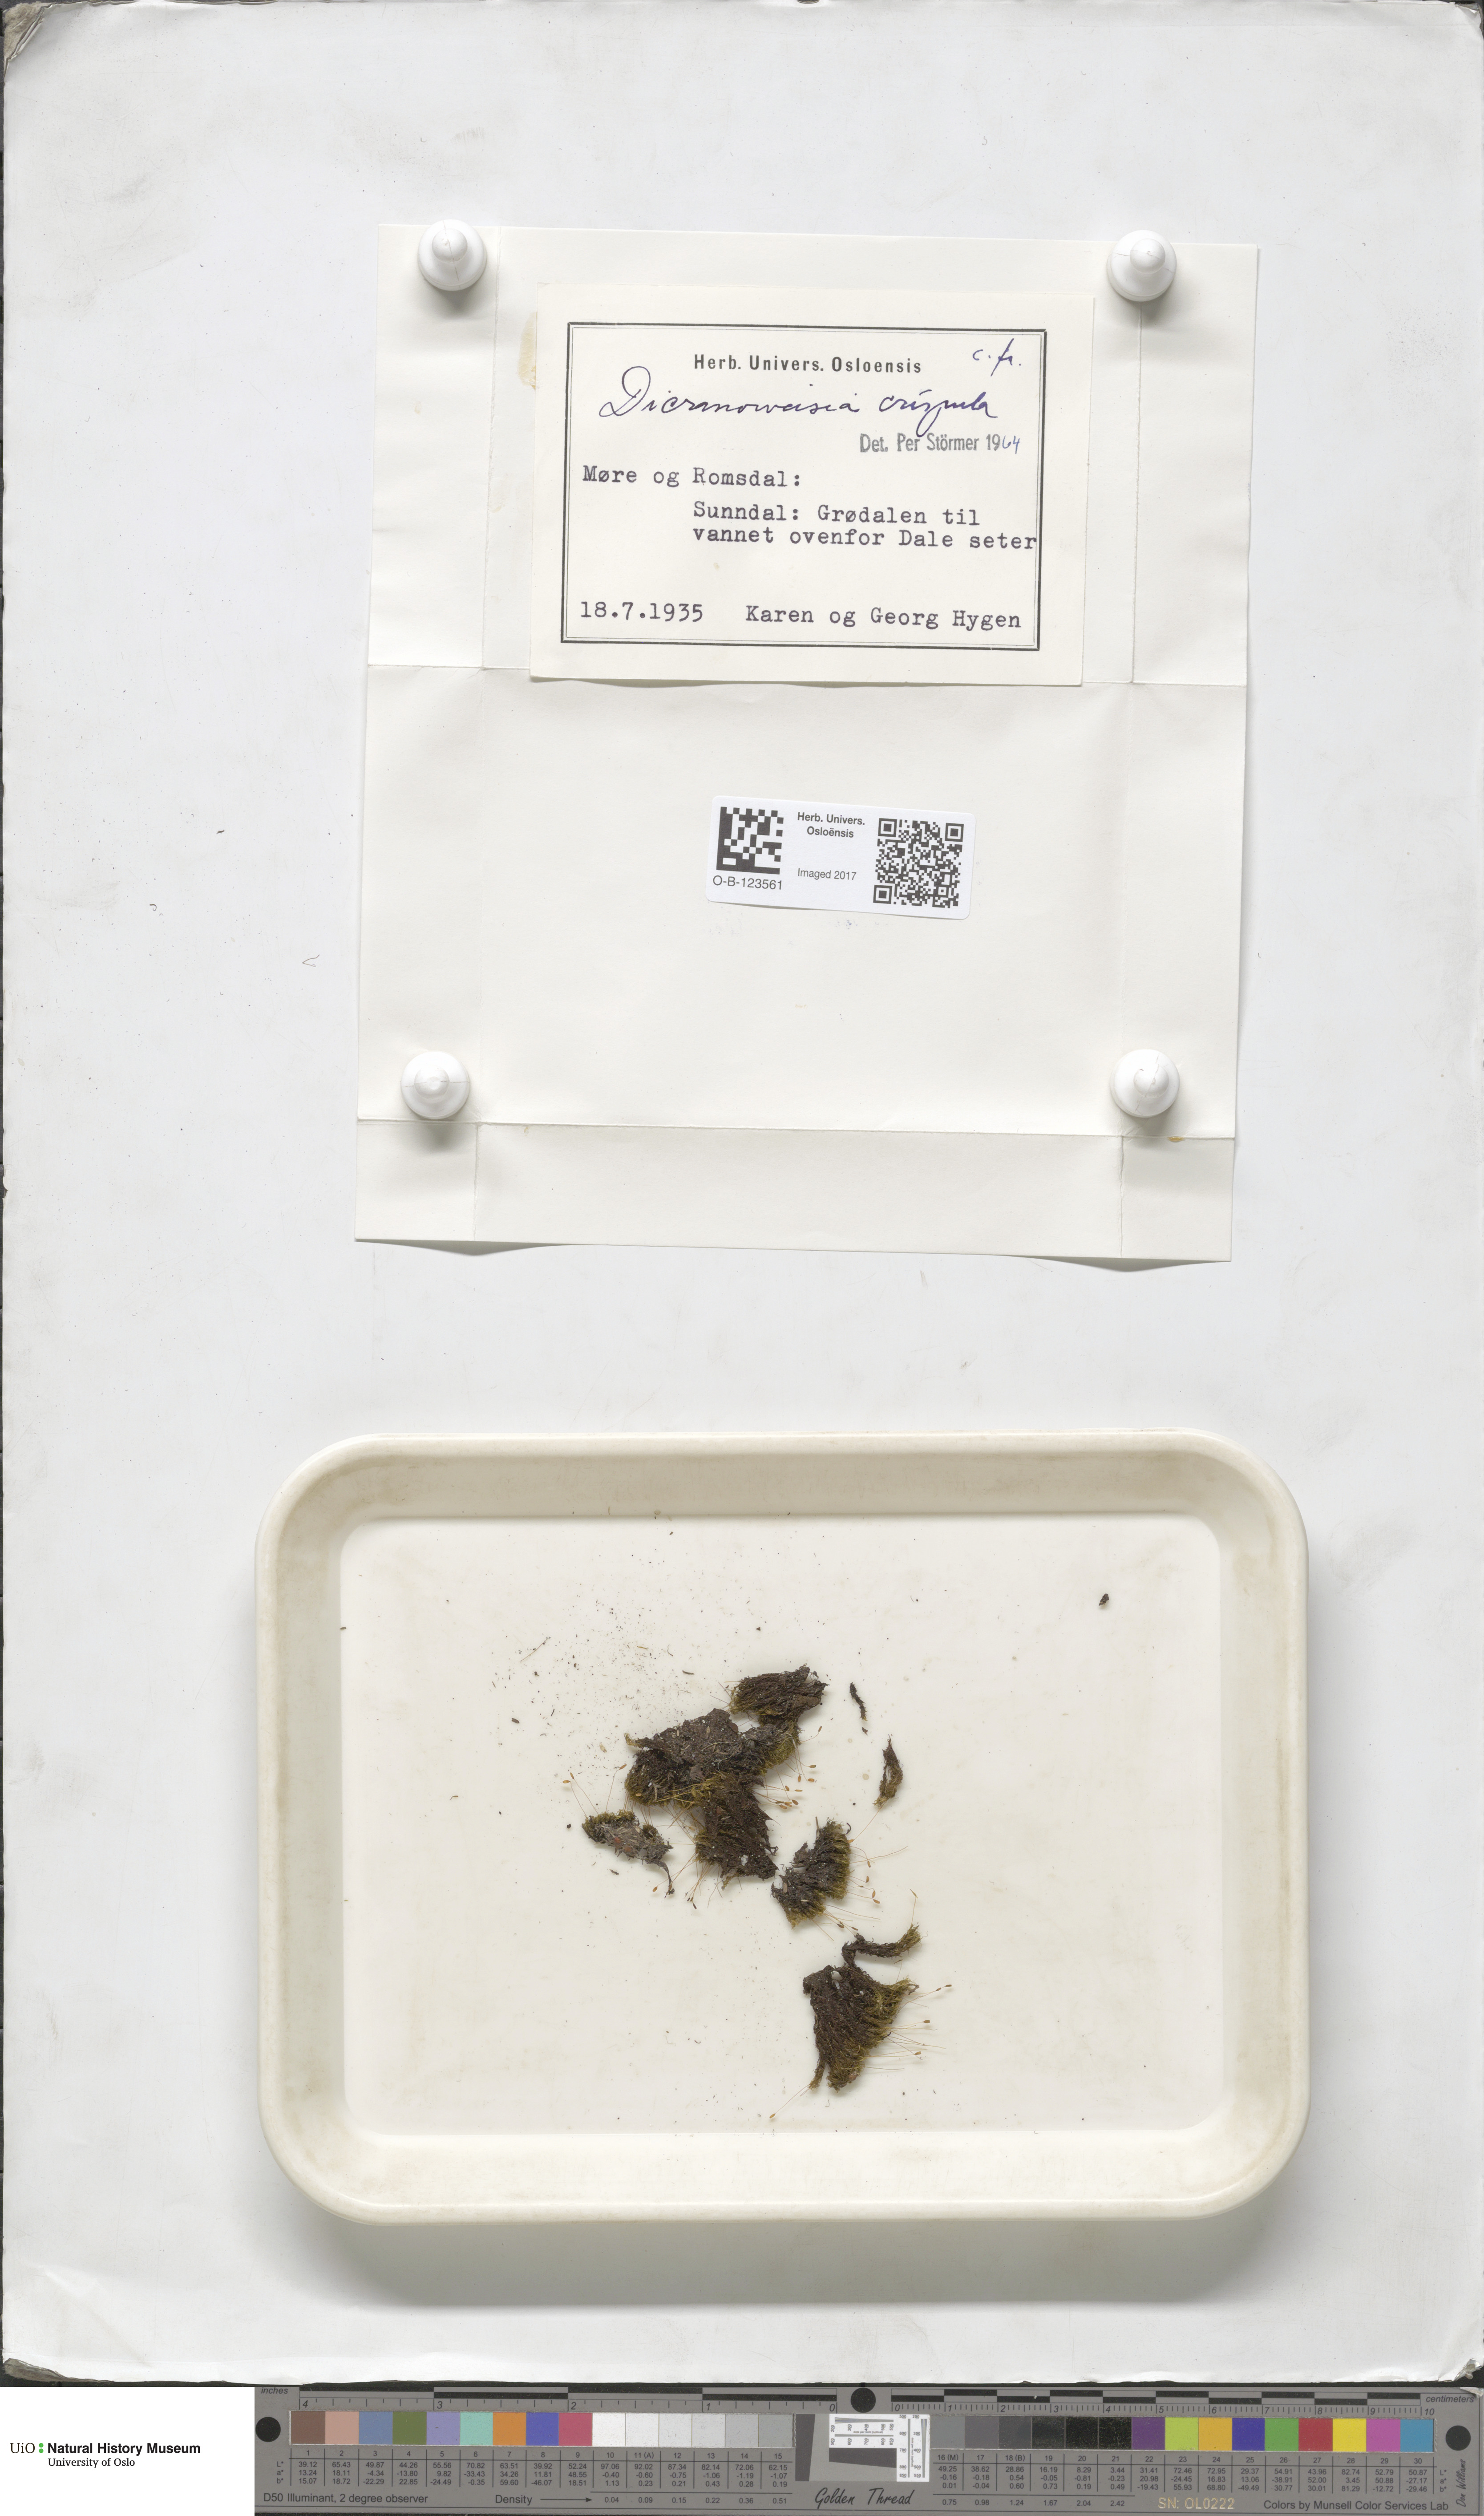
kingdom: Plantae
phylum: Bryophyta
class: Bryopsida
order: Scouleriales
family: Hymenolomataceae
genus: Hymenoloma
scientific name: Hymenoloma crispulum
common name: Mountain pincushion
